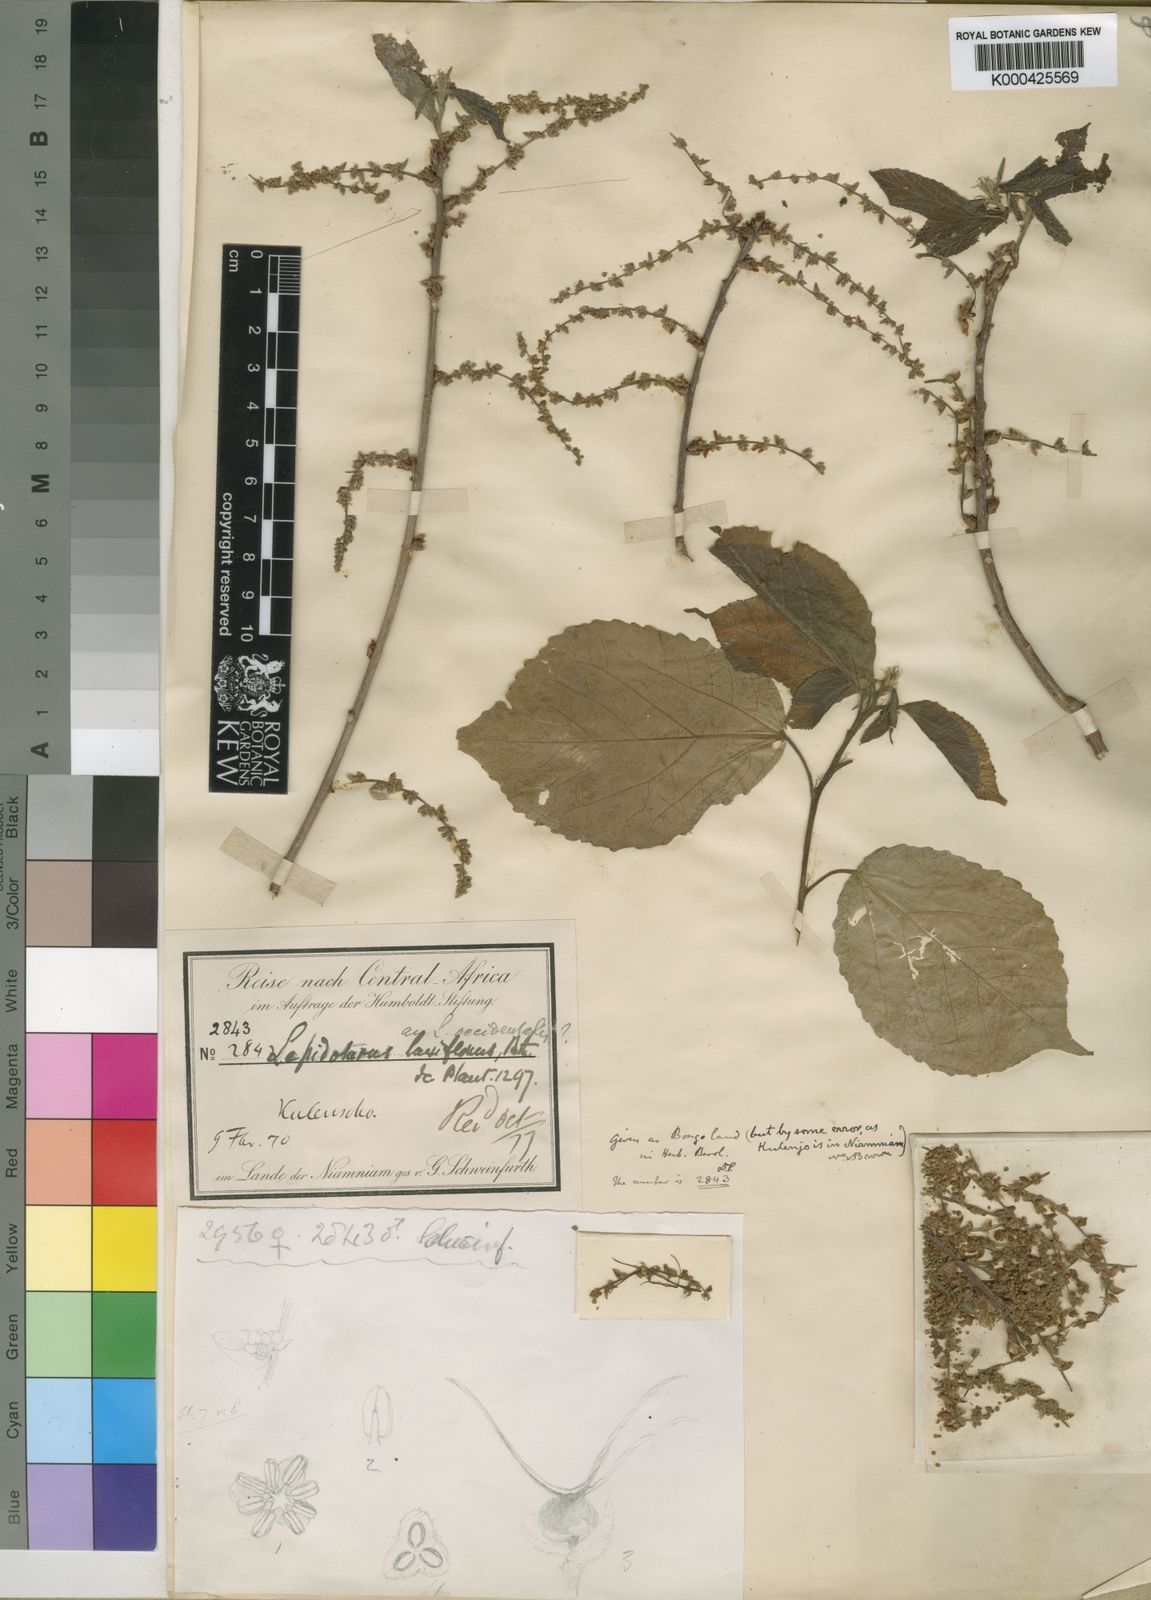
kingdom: Plantae
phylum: Tracheophyta
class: Magnoliopsida
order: Malpighiales
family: Euphorbiaceae
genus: Alchornea
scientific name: Alchornea laxiflora
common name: Lowveld bead-string
